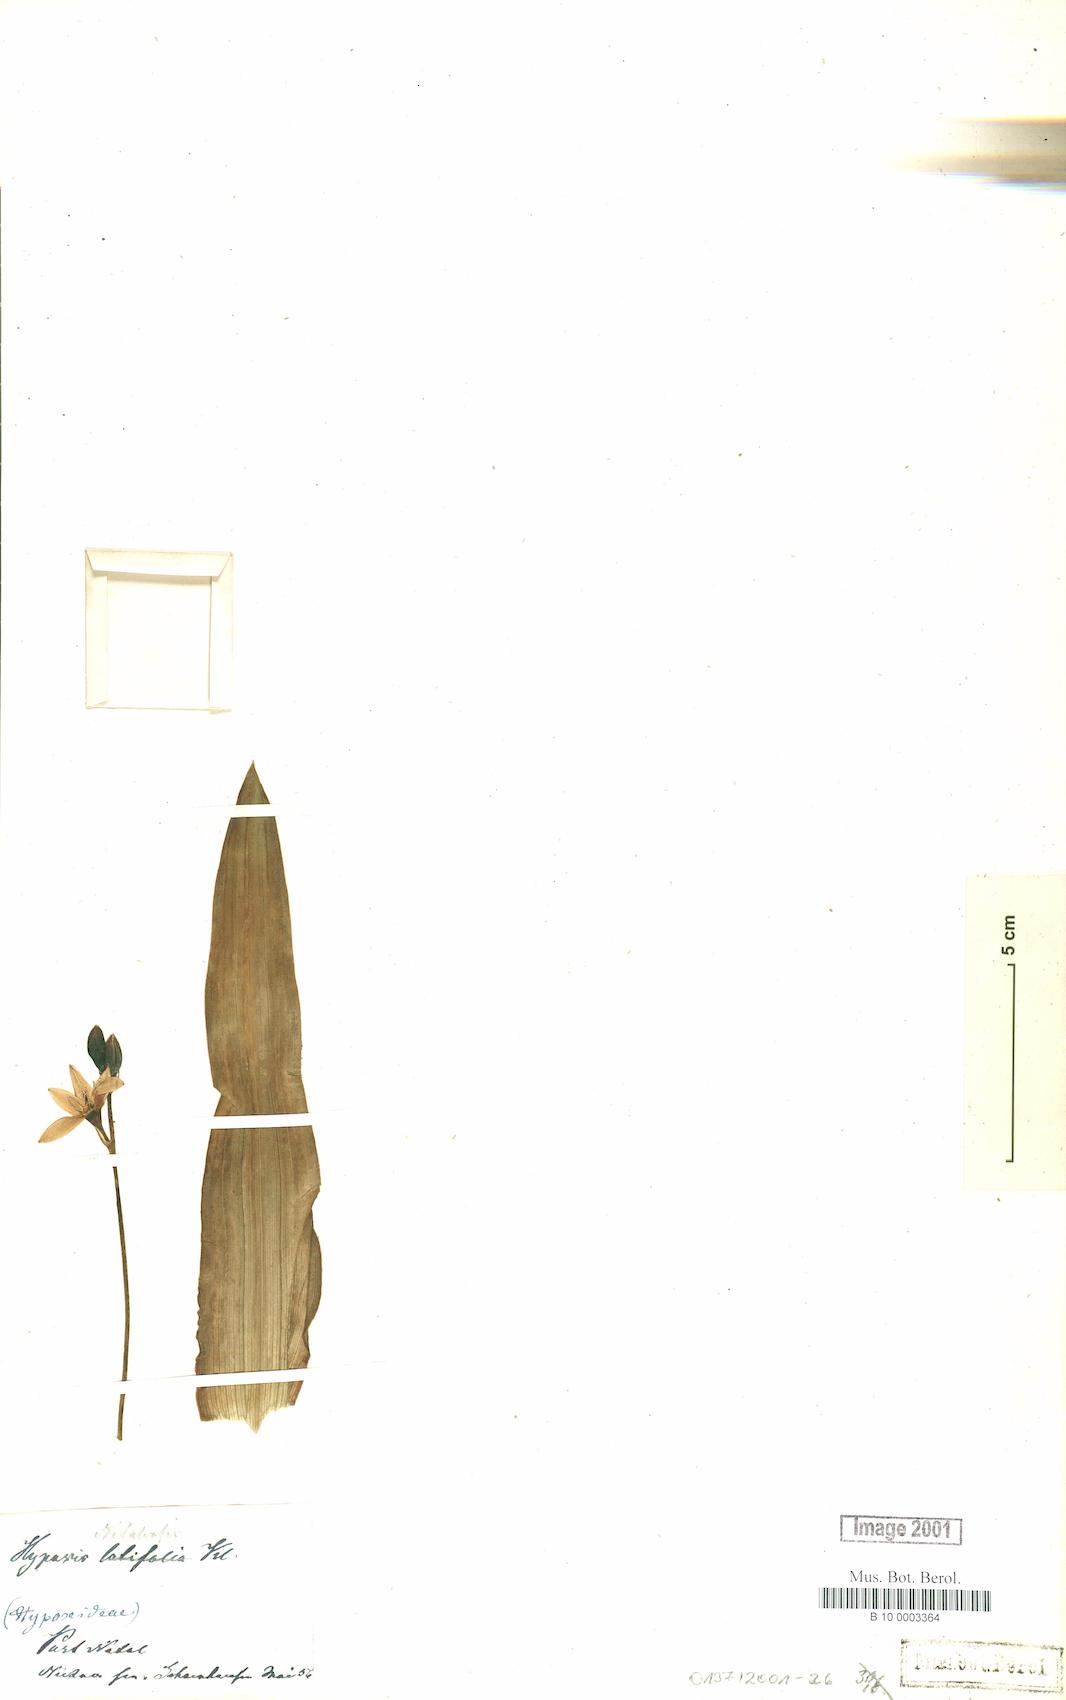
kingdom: Plantae
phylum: Tracheophyta
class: Liliopsida
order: Asparagales
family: Hypoxidaceae
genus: Hypoxis
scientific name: Hypoxis natalensis
